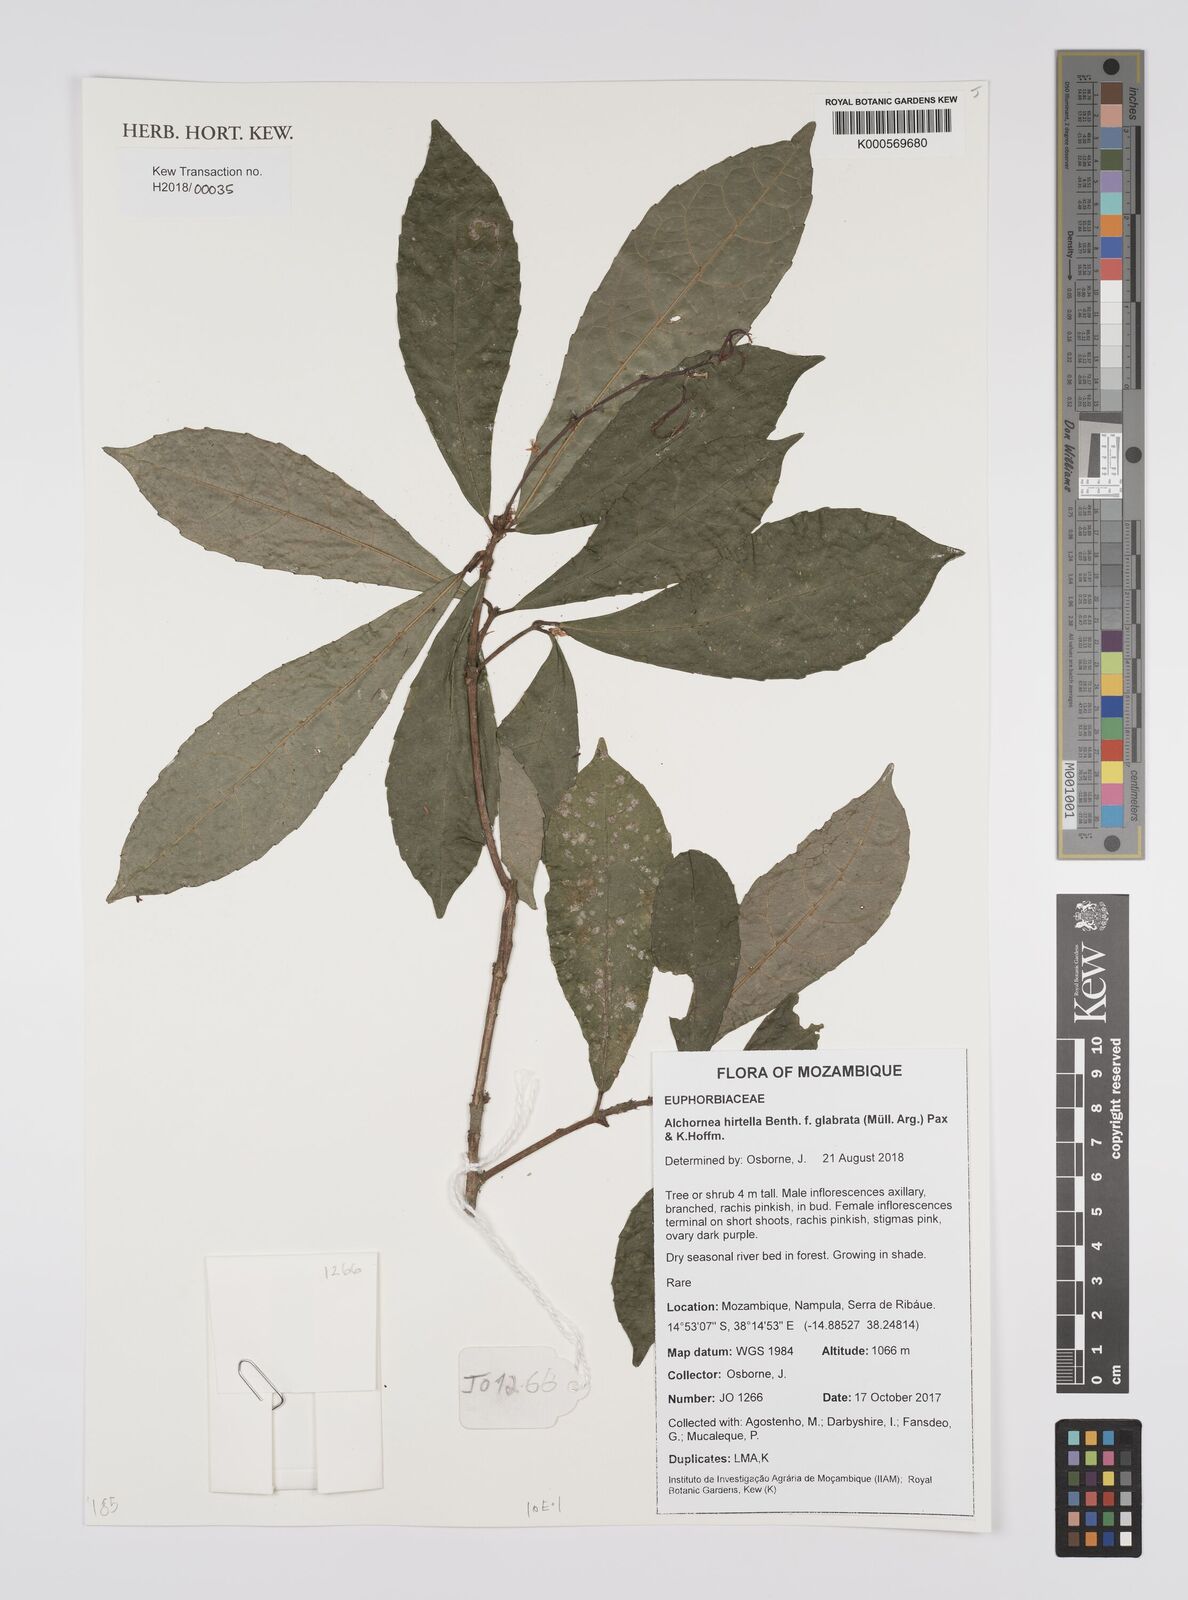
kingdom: Plantae
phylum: Tracheophyta
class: Magnoliopsida
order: Malpighiales
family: Euphorbiaceae
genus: Alchornea
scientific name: Alchornea hirtella
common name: Forest bead-string
